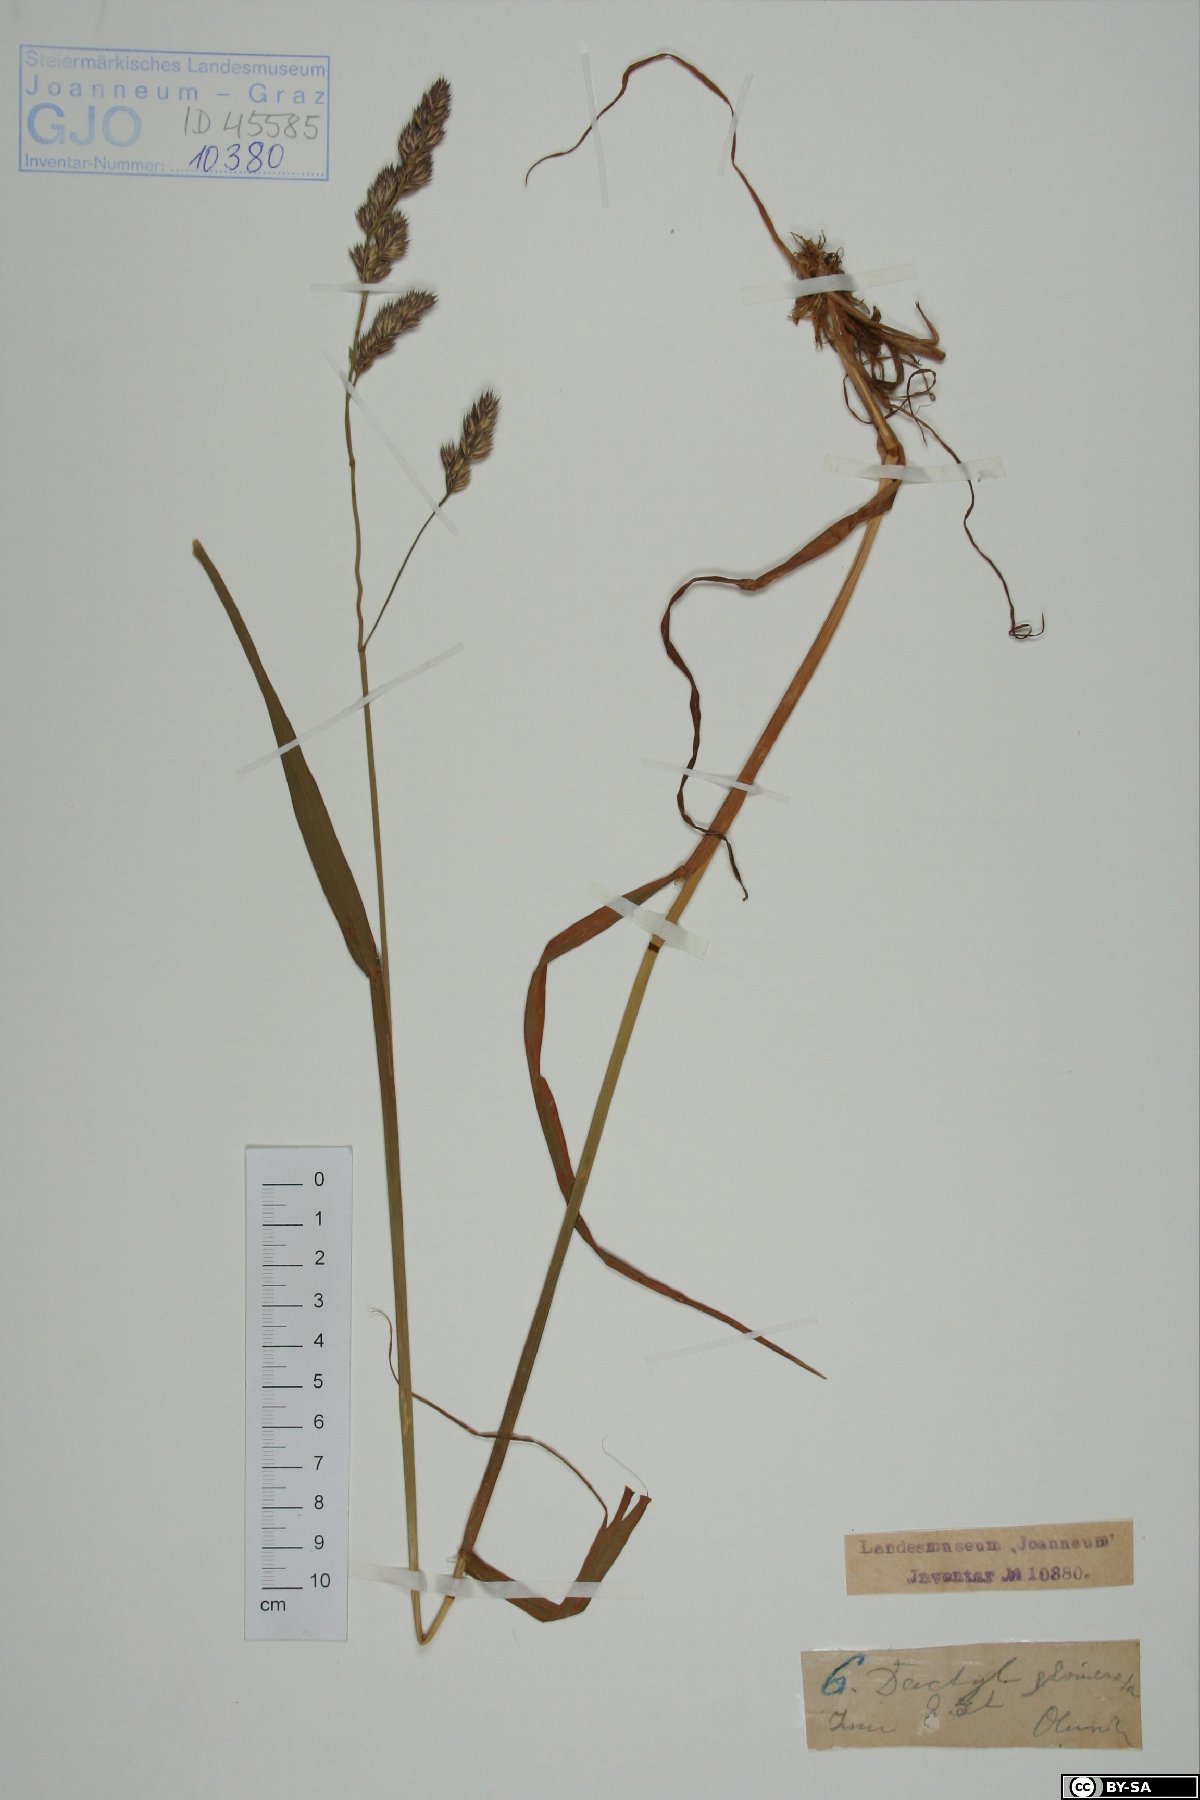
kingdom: Plantae
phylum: Tracheophyta
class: Liliopsida
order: Poales
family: Poaceae
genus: Dactylis
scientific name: Dactylis glomerata
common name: Orchardgrass
